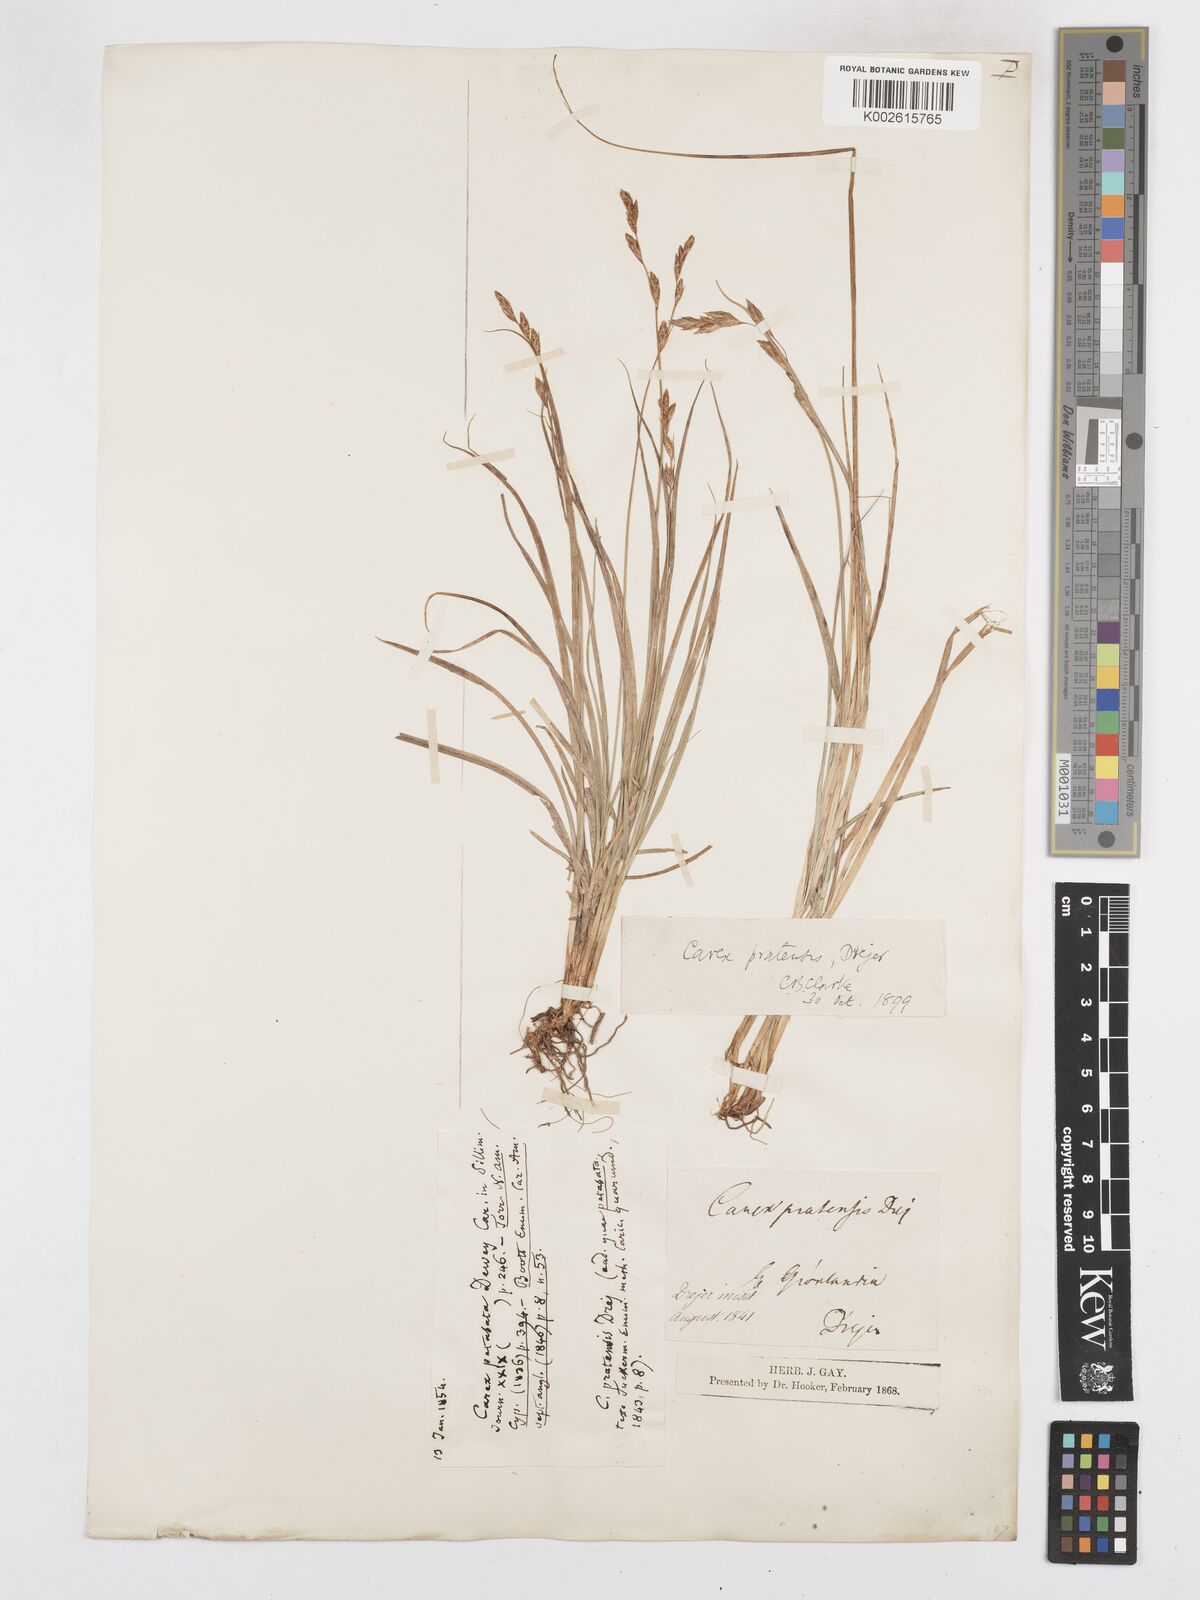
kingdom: Plantae
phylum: Tracheophyta
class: Liliopsida
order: Poales
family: Cyperaceae
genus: Carex
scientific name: Carex praticola
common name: Large-fruited oval sedge
